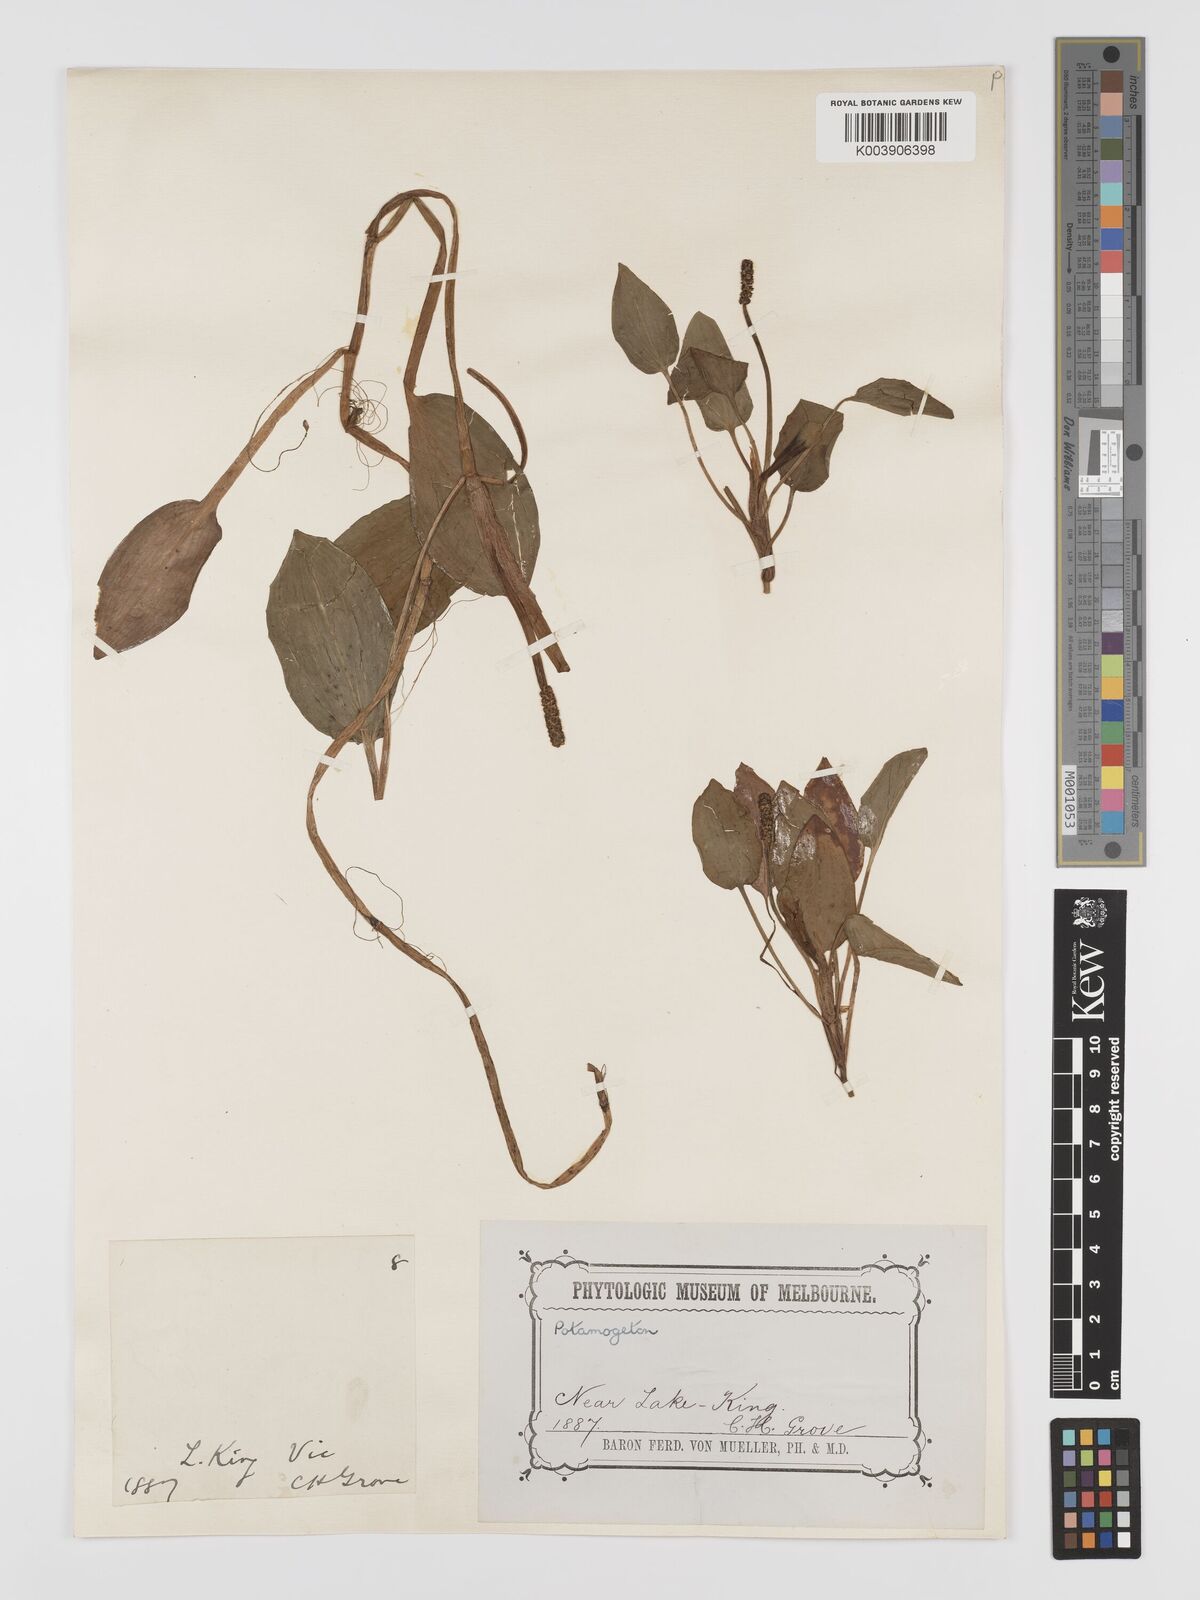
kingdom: Plantae
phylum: Tracheophyta
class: Liliopsida
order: Alismatales
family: Potamogetonaceae
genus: Potamogeton
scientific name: Potamogeton tricarinatus
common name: Pondweed
